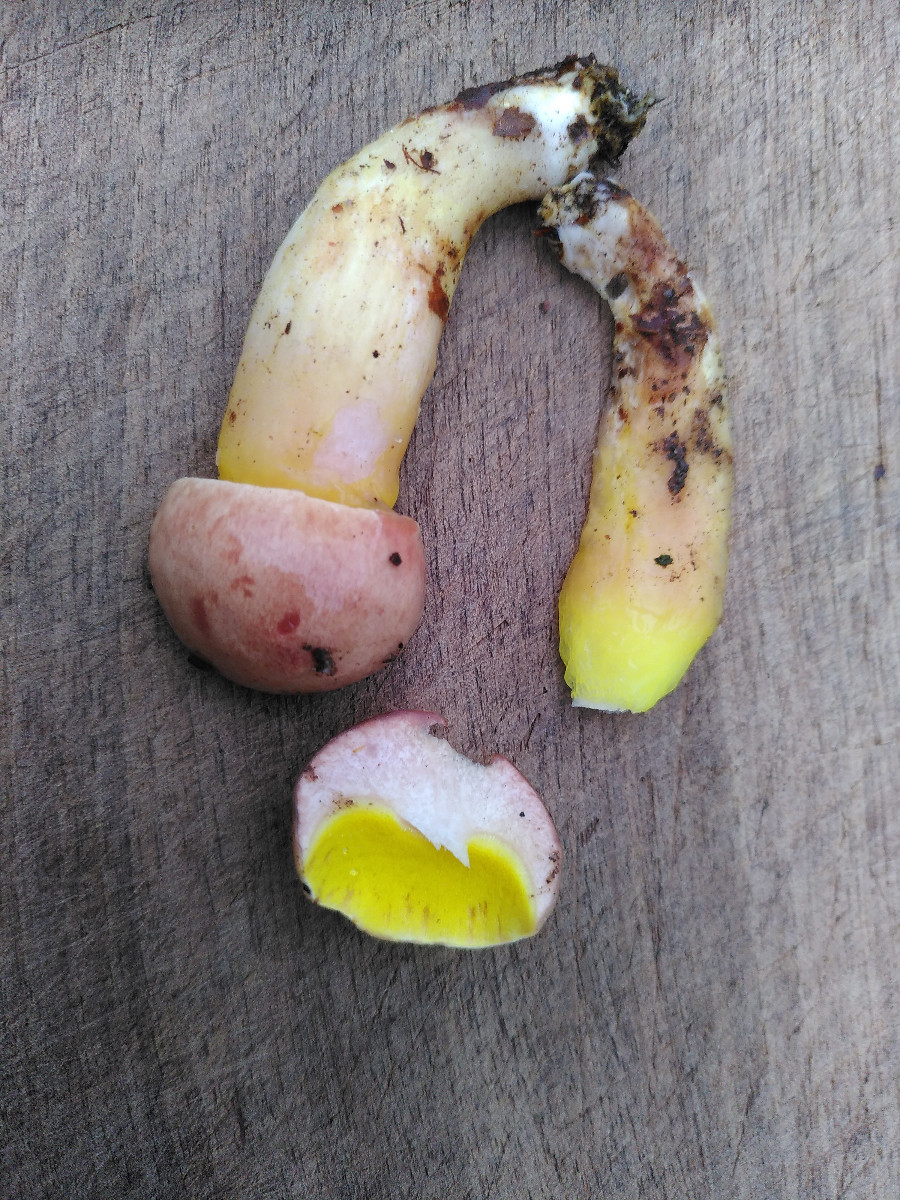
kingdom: Fungi
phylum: Basidiomycota
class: Agaricomycetes
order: Boletales
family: Boletaceae
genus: Aureoboletus
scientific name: Aureoboletus gentilis
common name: guldrørhat
